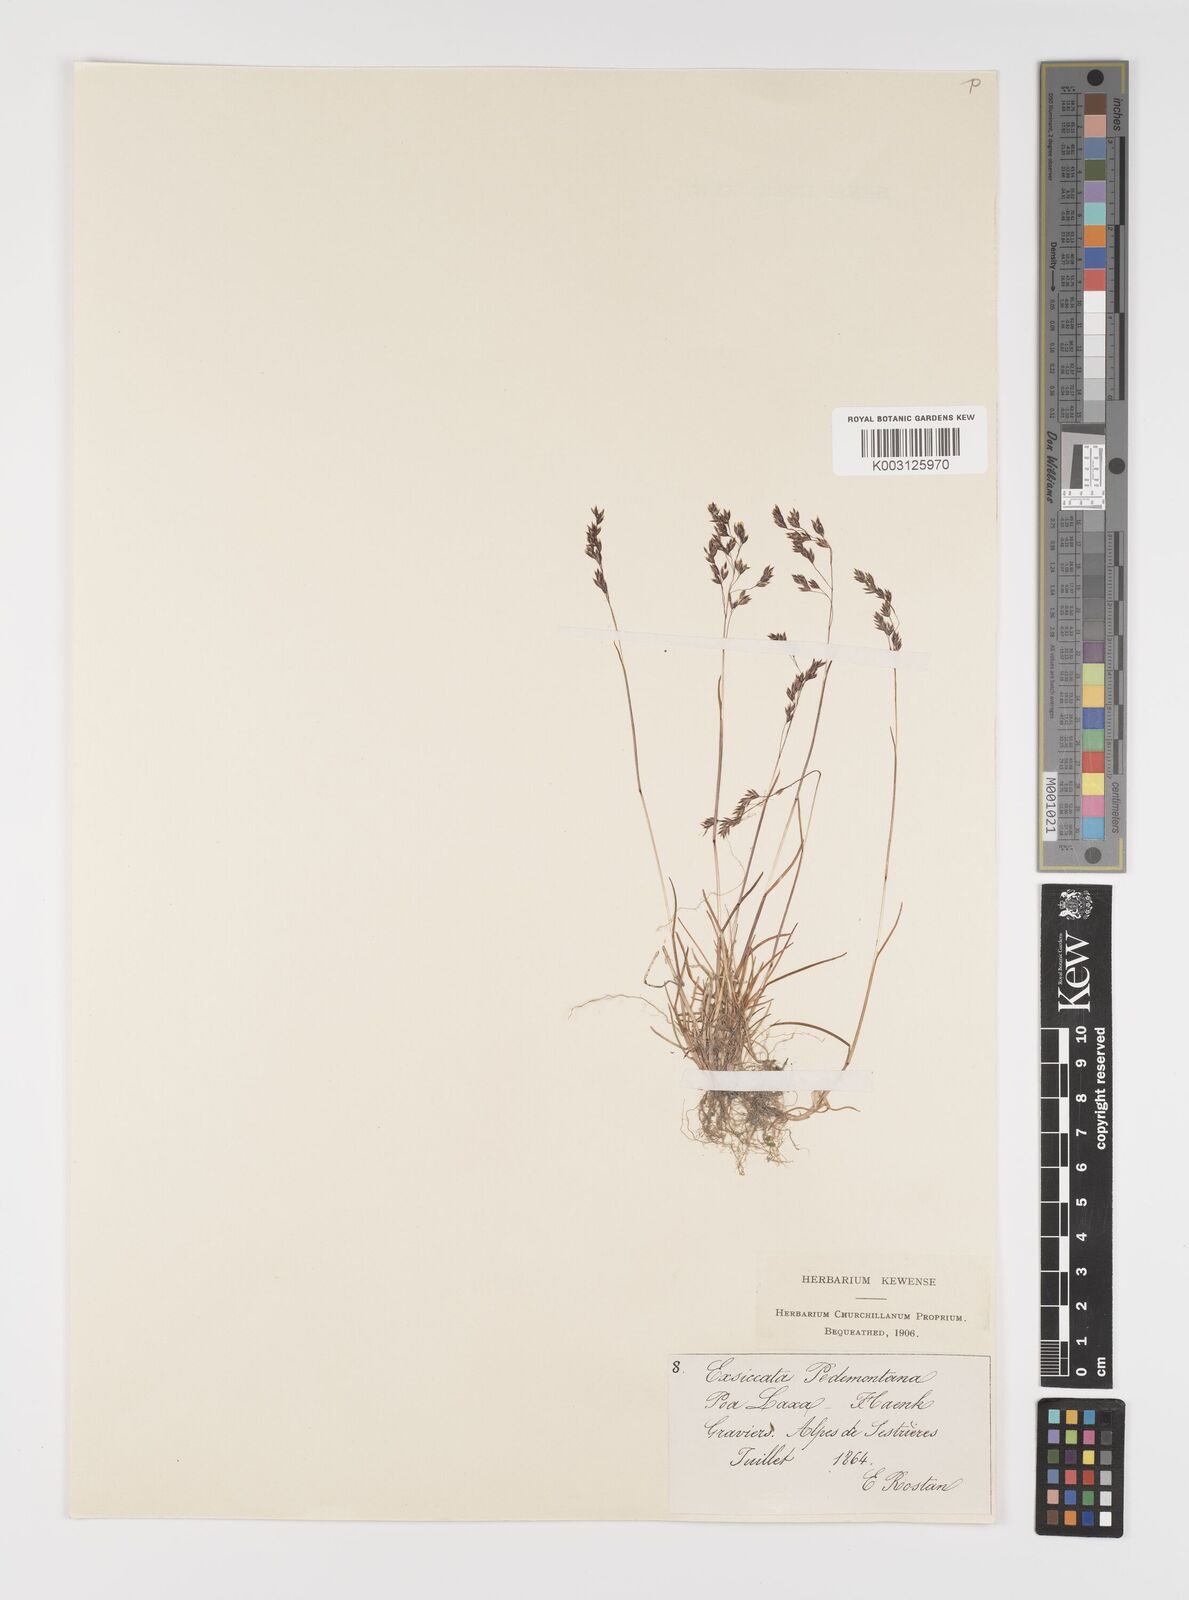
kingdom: Plantae
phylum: Tracheophyta
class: Liliopsida
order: Poales
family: Poaceae
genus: Poa
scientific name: Poa laxa
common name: Lax bluegrass
